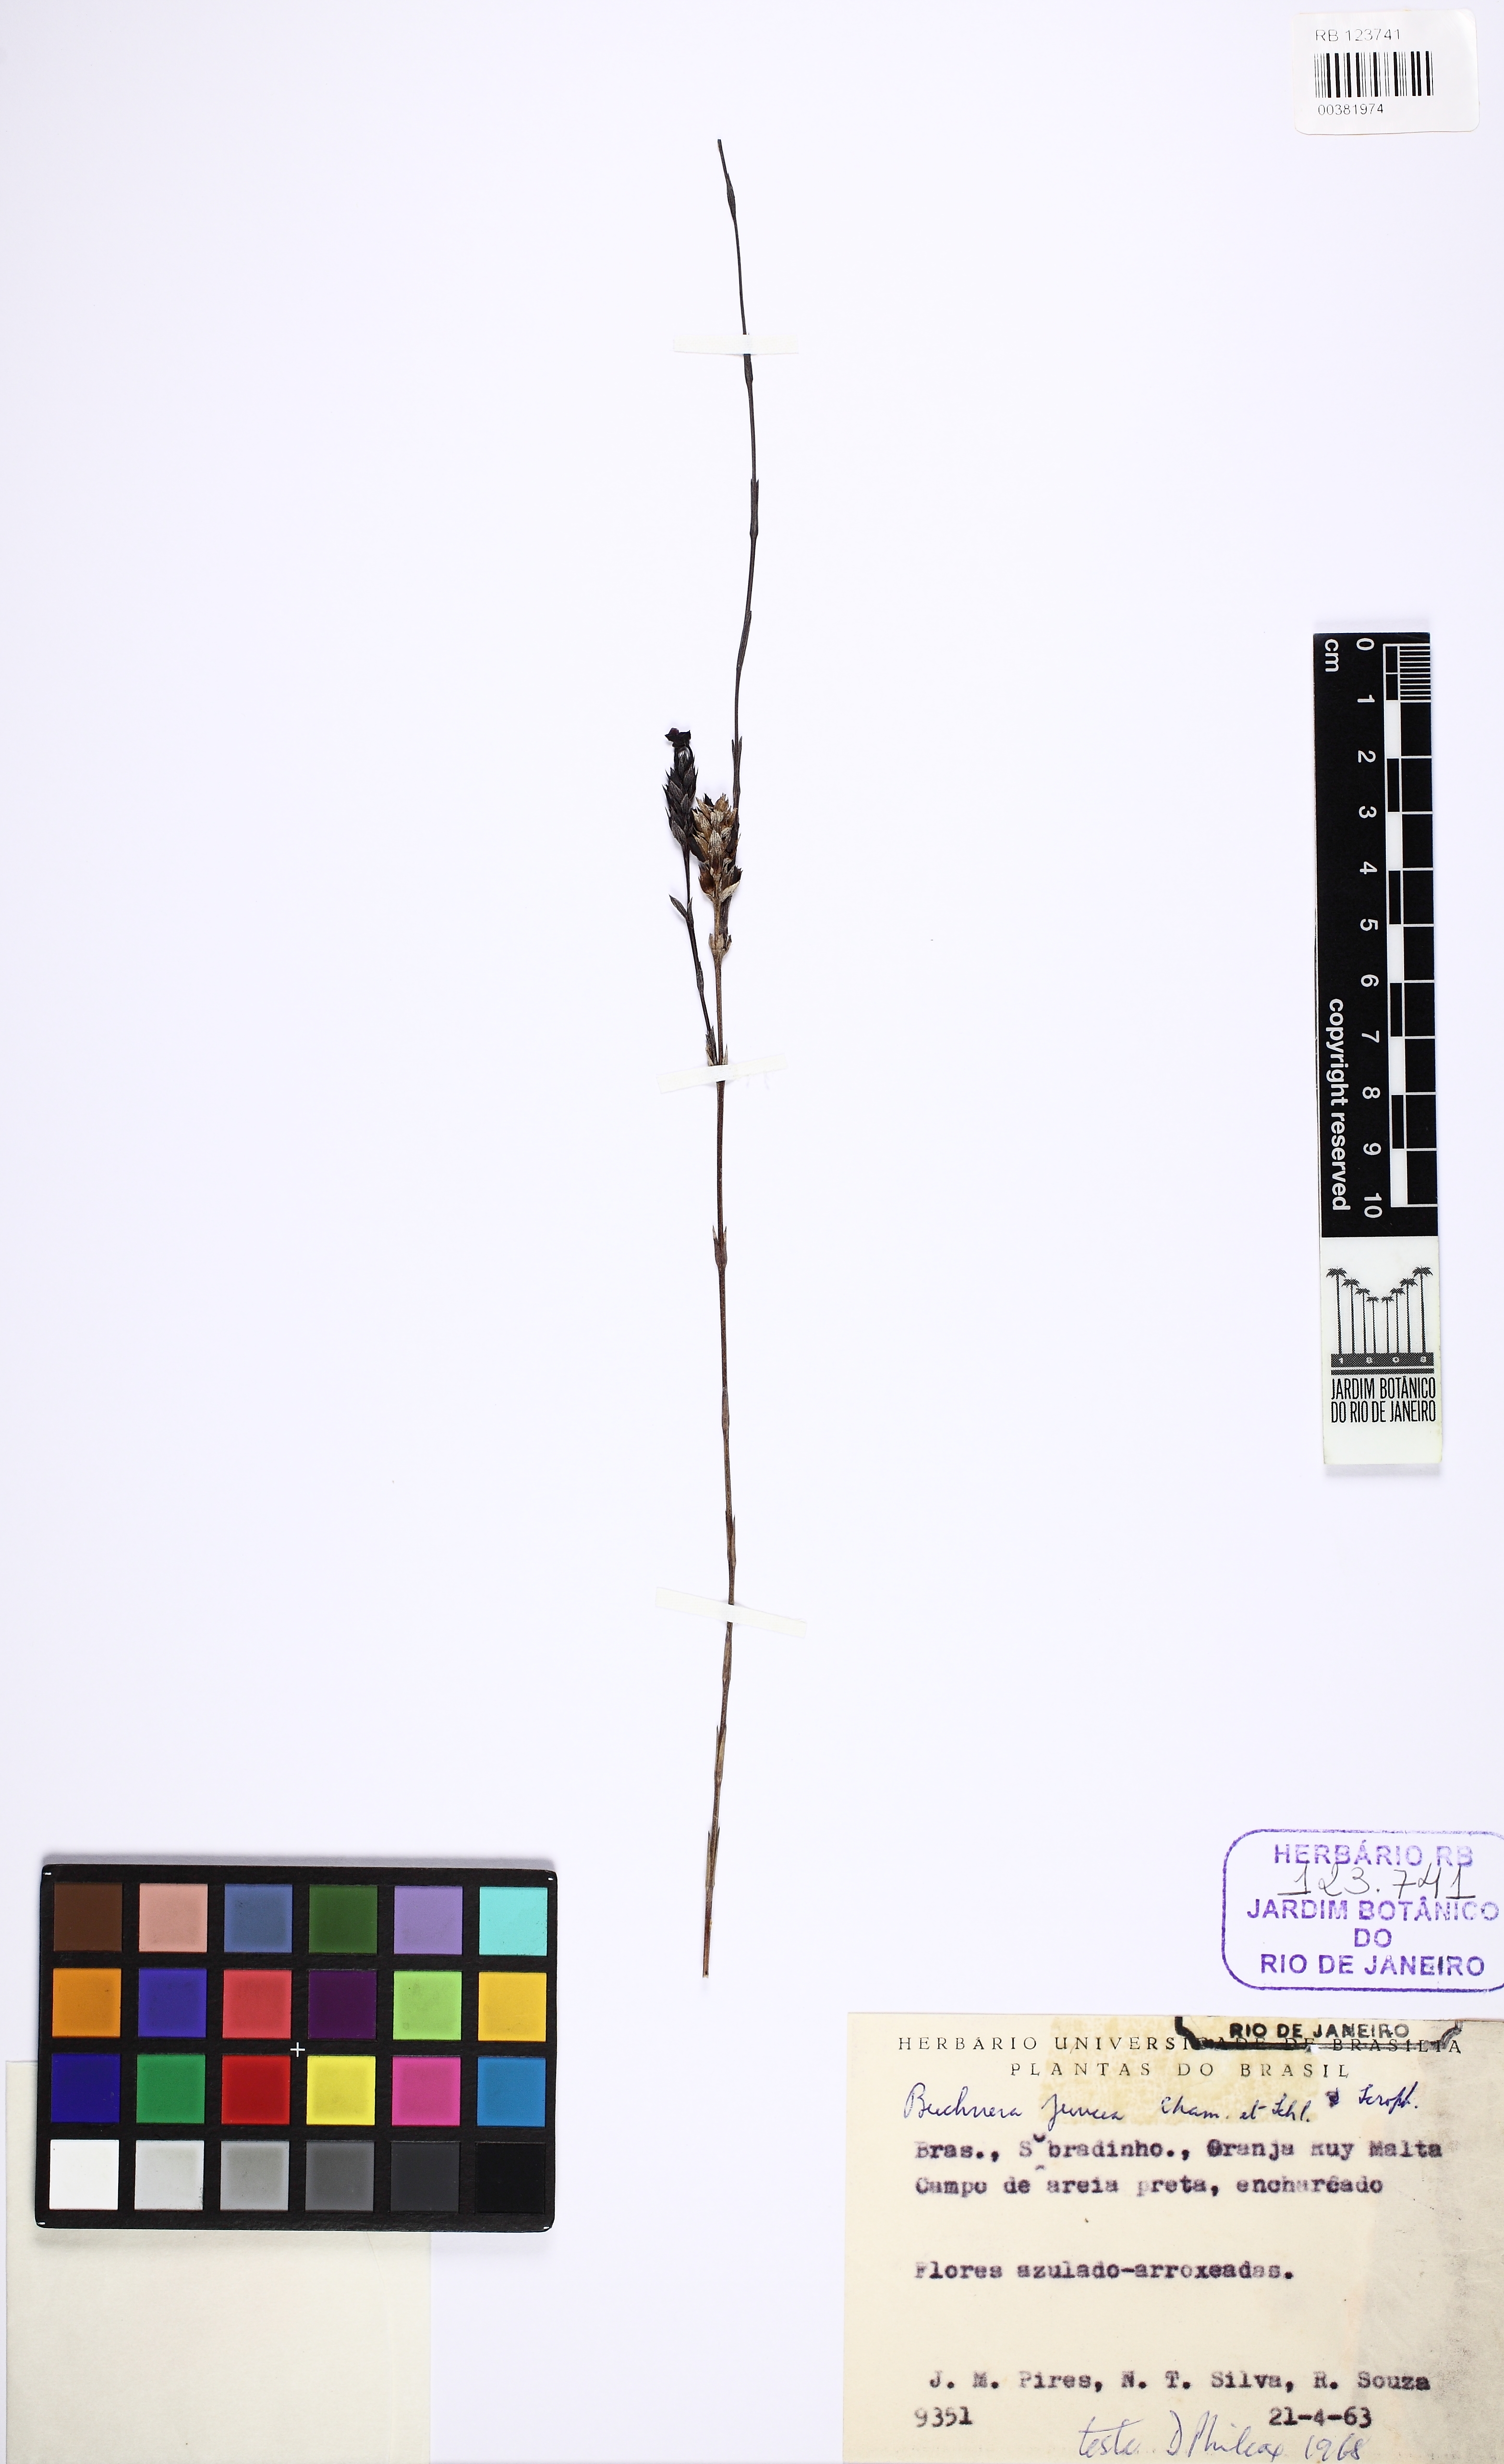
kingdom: Plantae
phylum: Tracheophyta
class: Magnoliopsida
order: Lamiales
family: Orobanchaceae
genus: Buchnera
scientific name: Buchnera juncea
